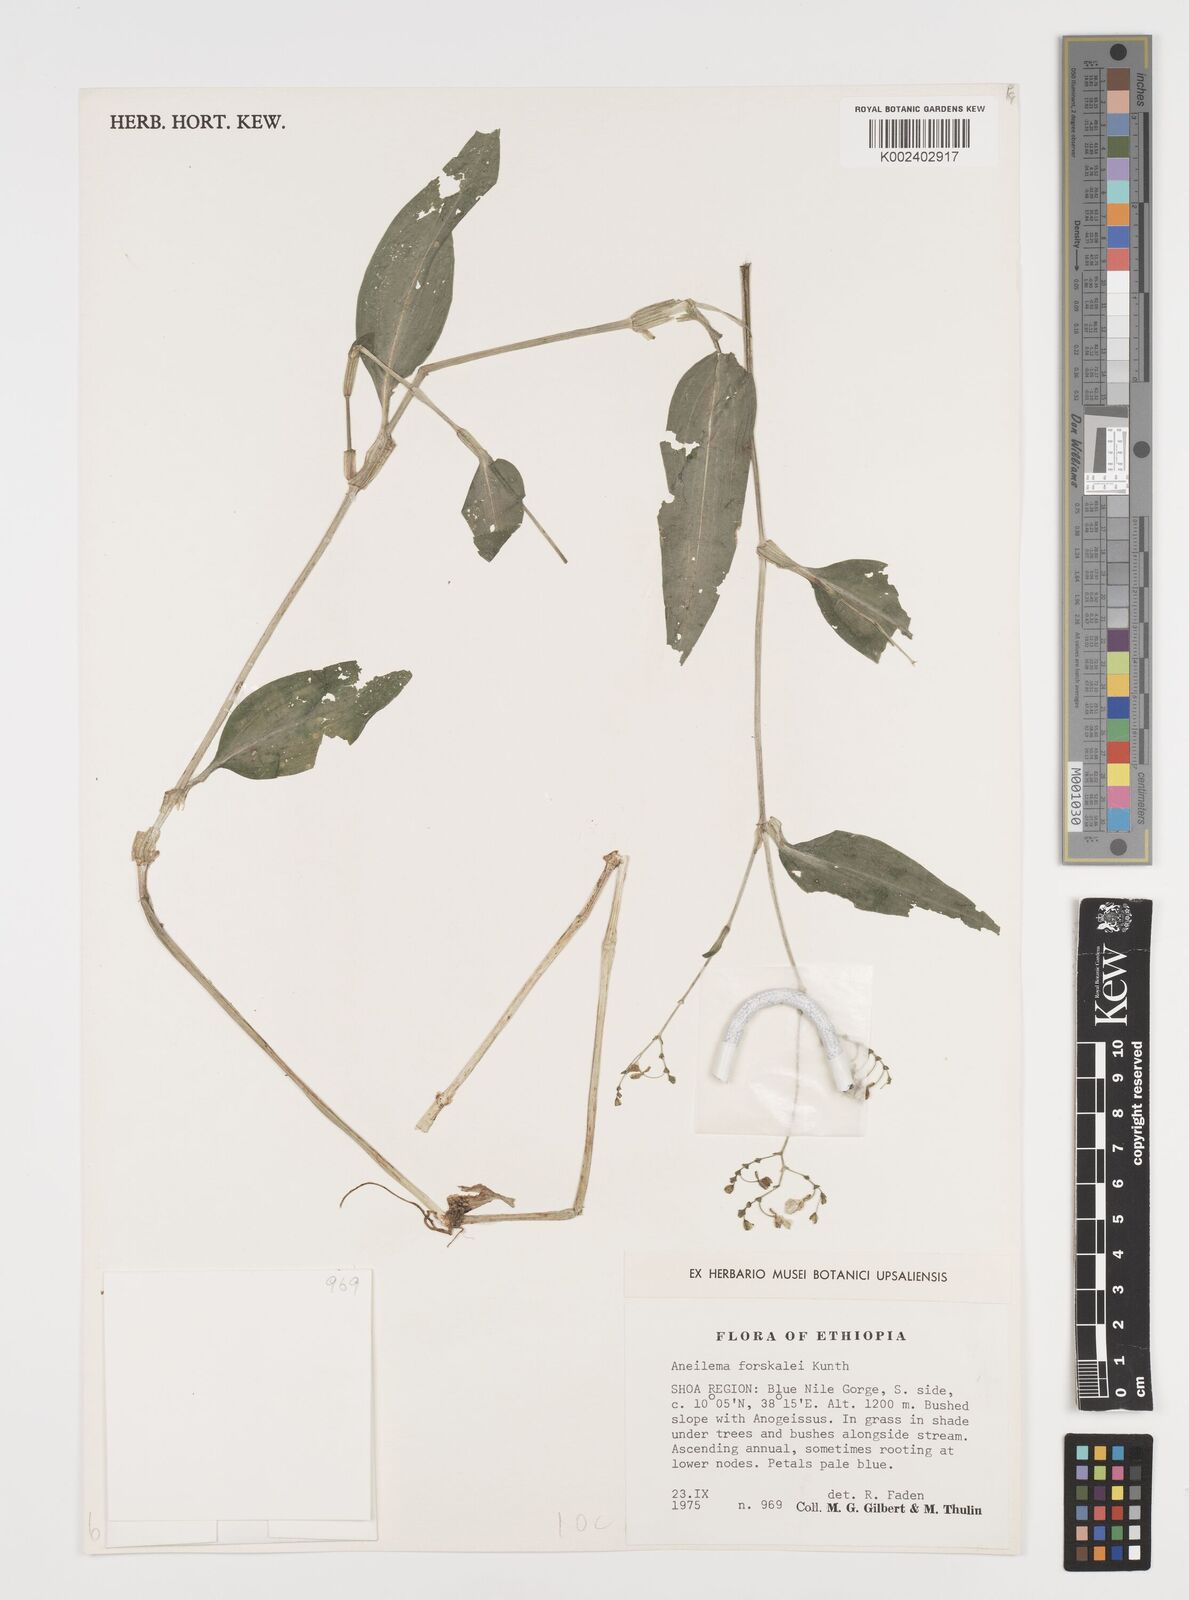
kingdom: Plantae
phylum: Tracheophyta
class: Liliopsida
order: Commelinales
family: Commelinaceae
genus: Aneilema
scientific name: Aneilema forskalii
